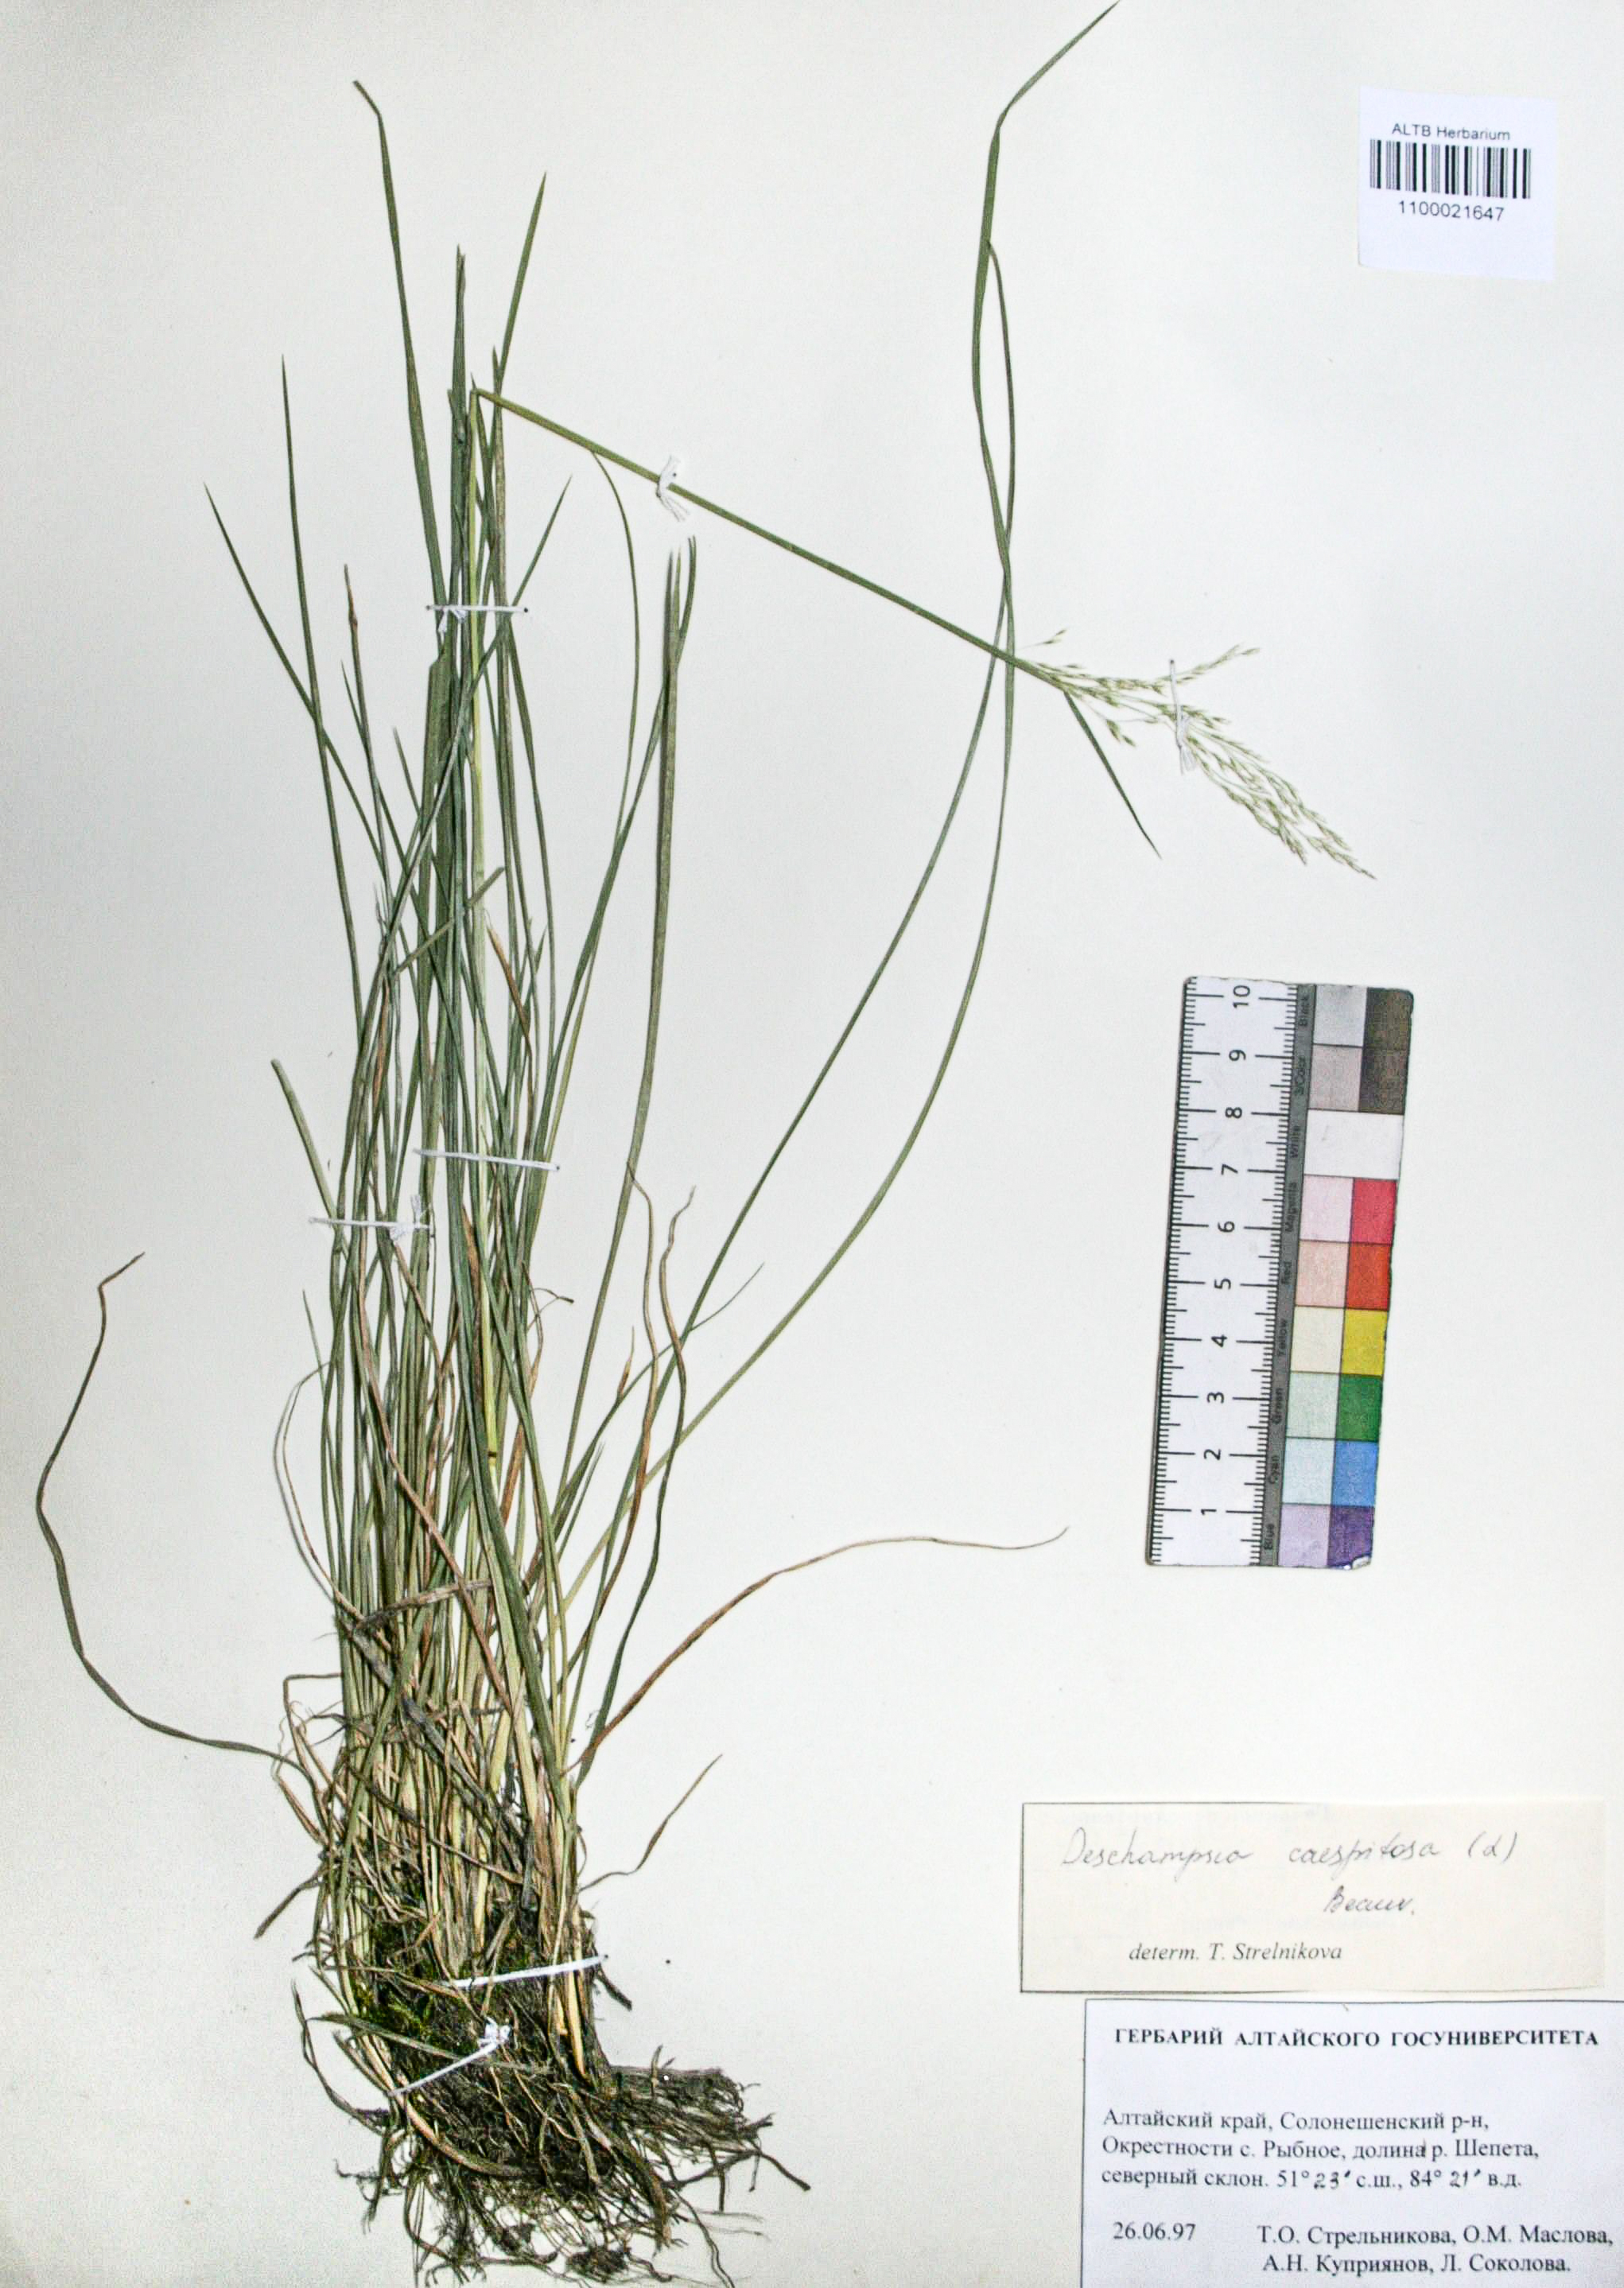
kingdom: Plantae
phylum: Tracheophyta
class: Liliopsida
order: Poales
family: Poaceae
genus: Deschampsia
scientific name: Deschampsia cespitosa
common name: Tufted hair-grass
